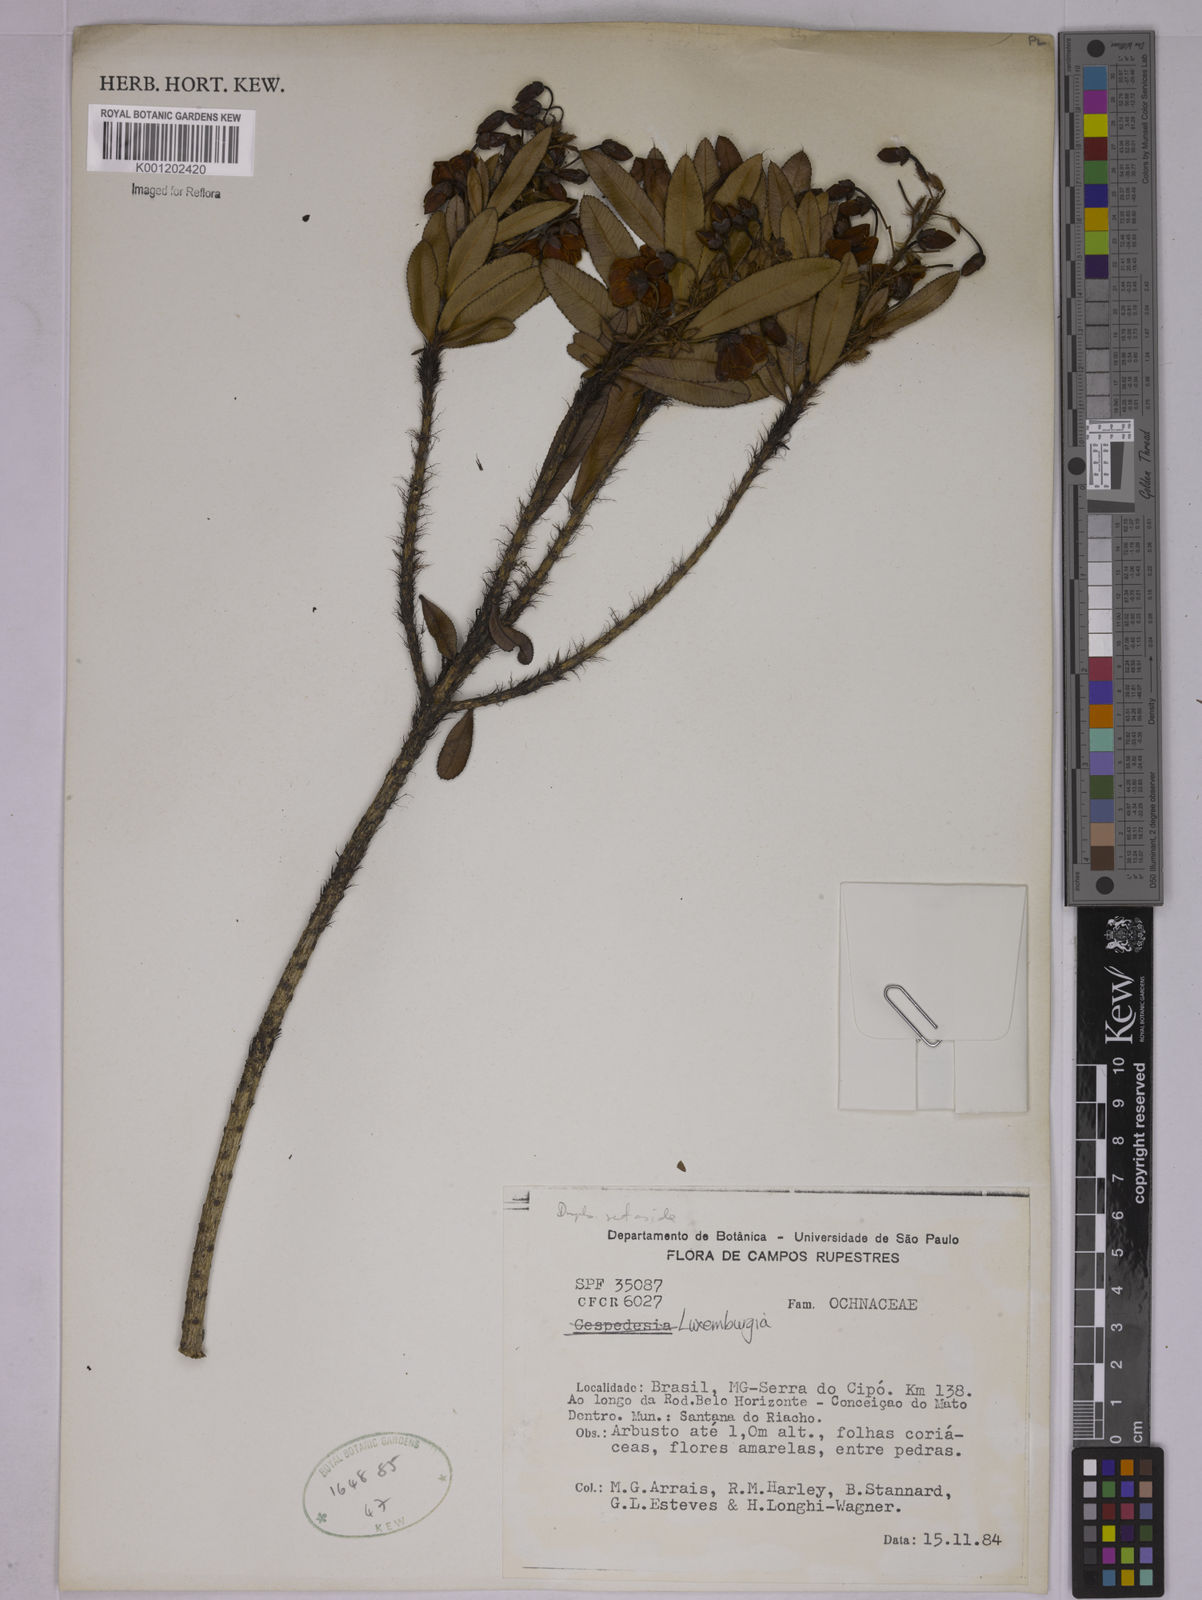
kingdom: Plantae
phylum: Tracheophyta
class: Magnoliopsida
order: Malpighiales
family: Ochnaceae
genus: Luxemburgia
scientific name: Luxemburgia
